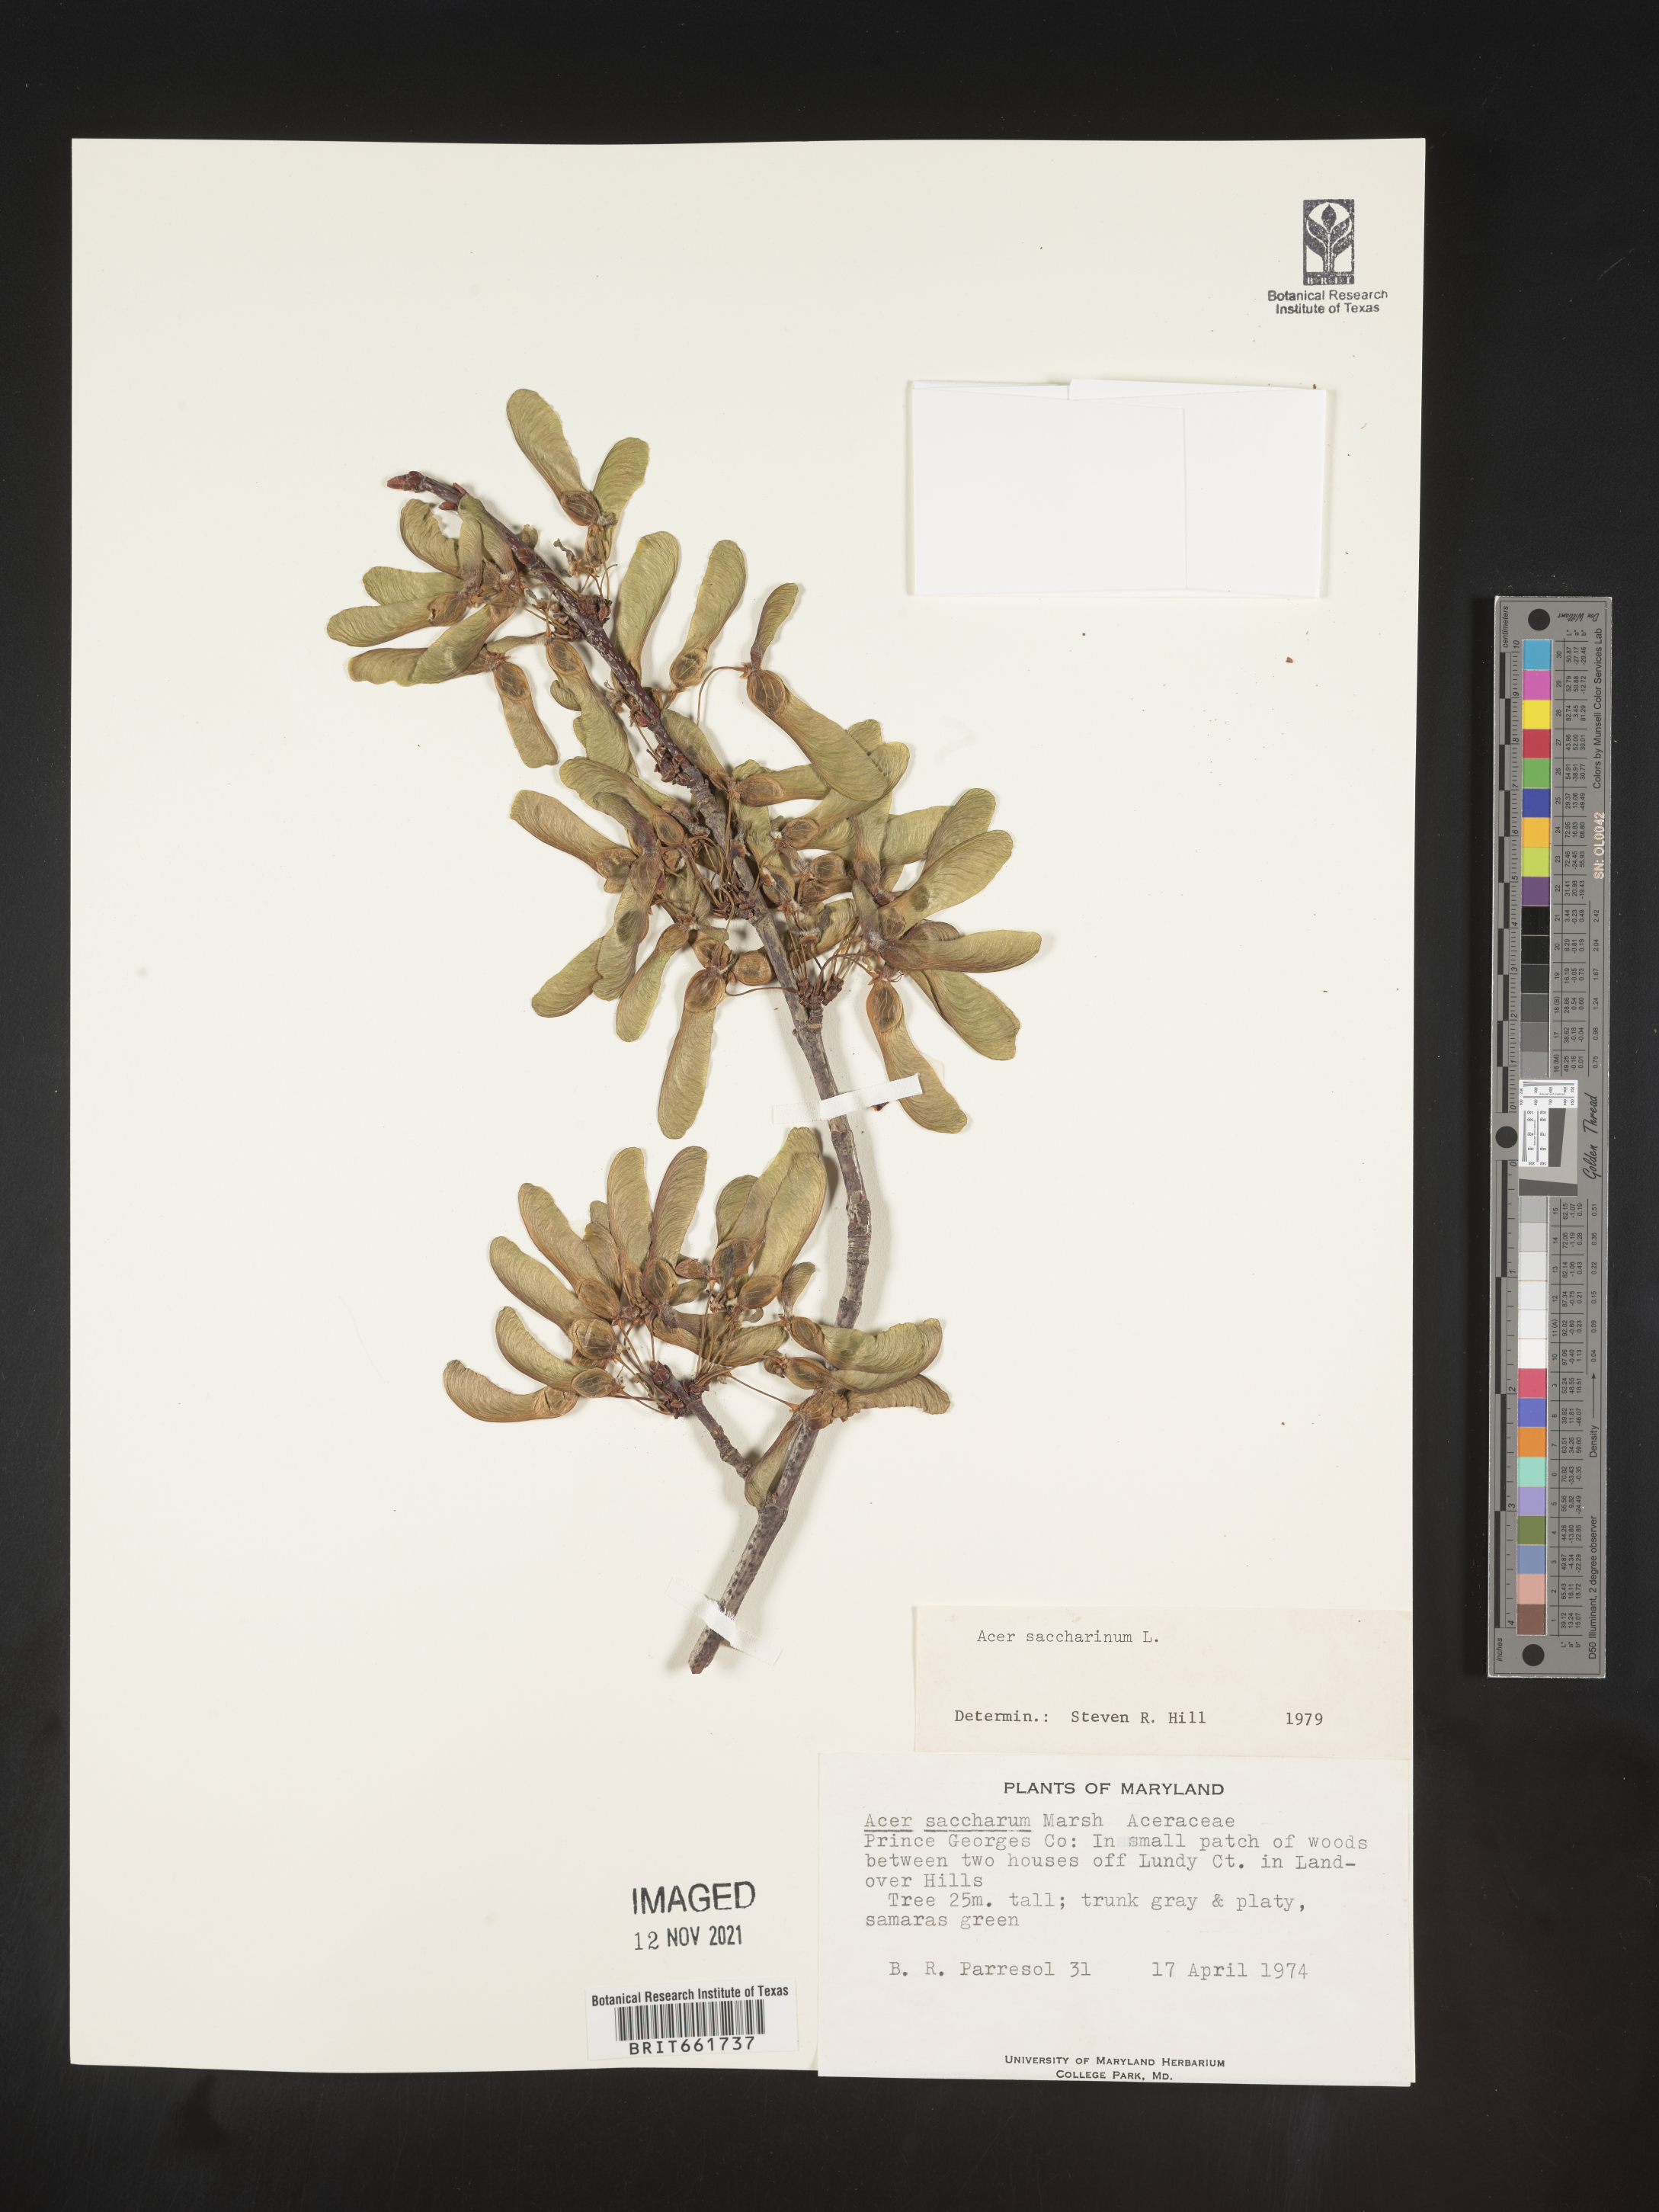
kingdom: Plantae
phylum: Tracheophyta
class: Magnoliopsida
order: Sapindales
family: Sapindaceae
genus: Acer
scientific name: Acer saccharinum
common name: Silver maple
